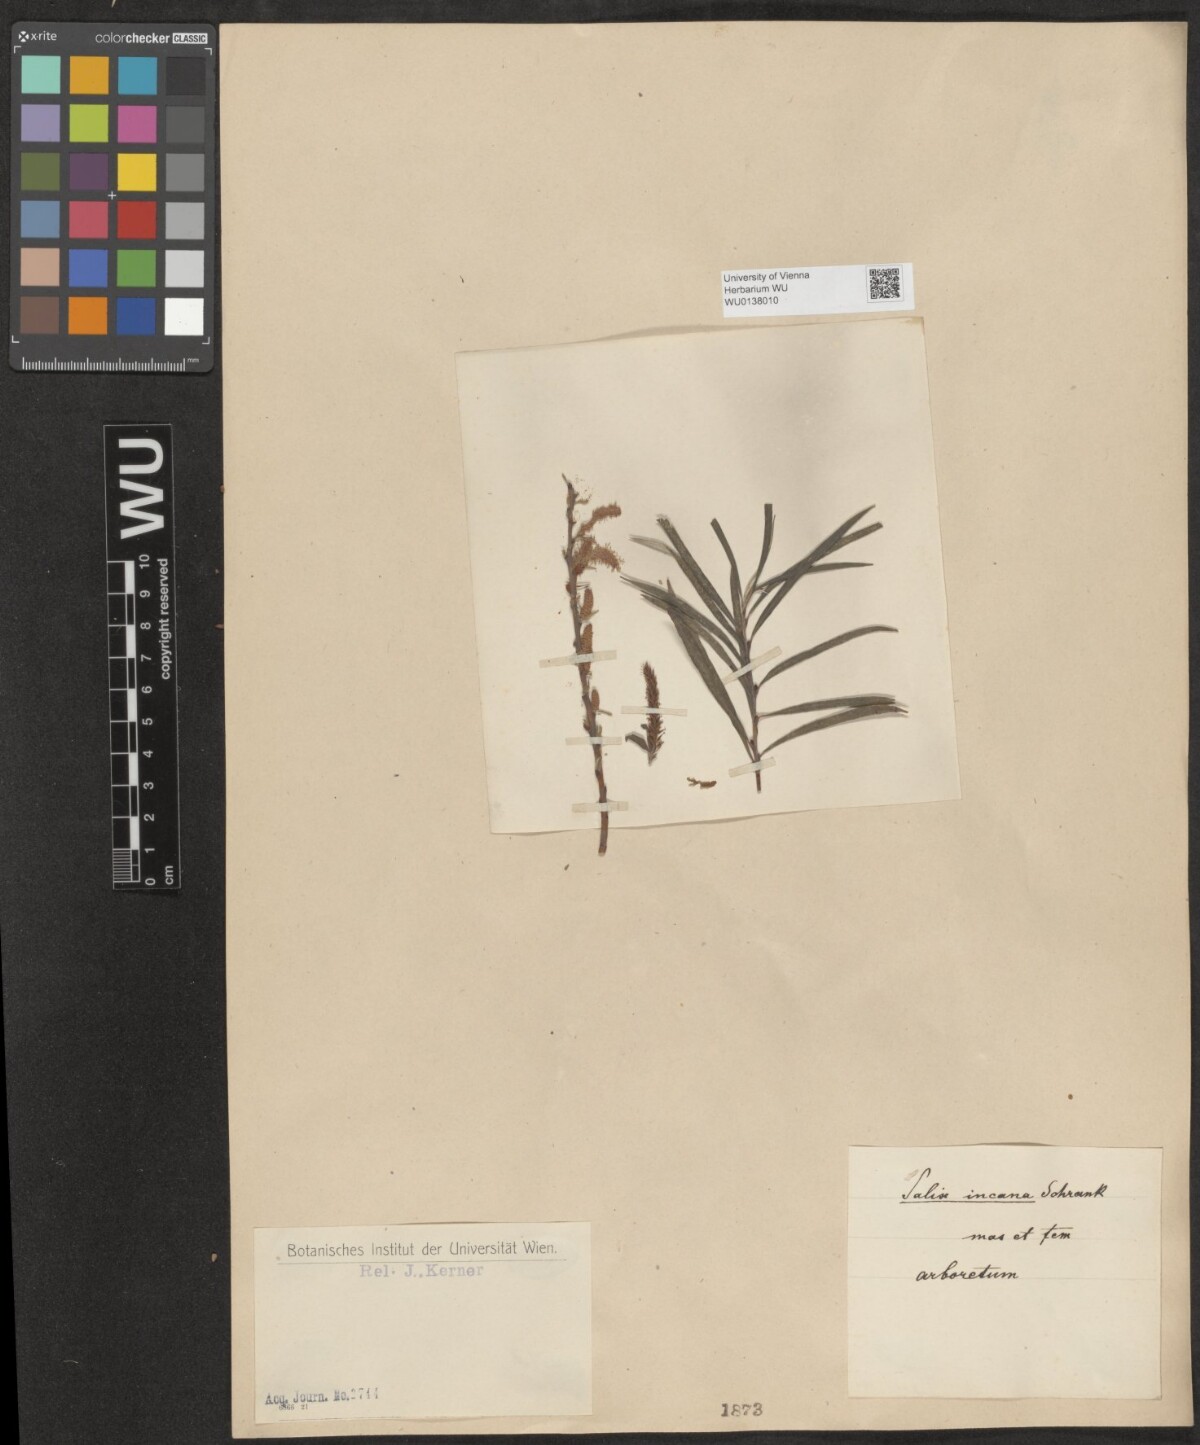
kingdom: Plantae
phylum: Tracheophyta
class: Magnoliopsida
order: Malpighiales
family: Salicaceae
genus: Salix
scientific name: Salix eleagnos
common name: Elaeagnus willow
